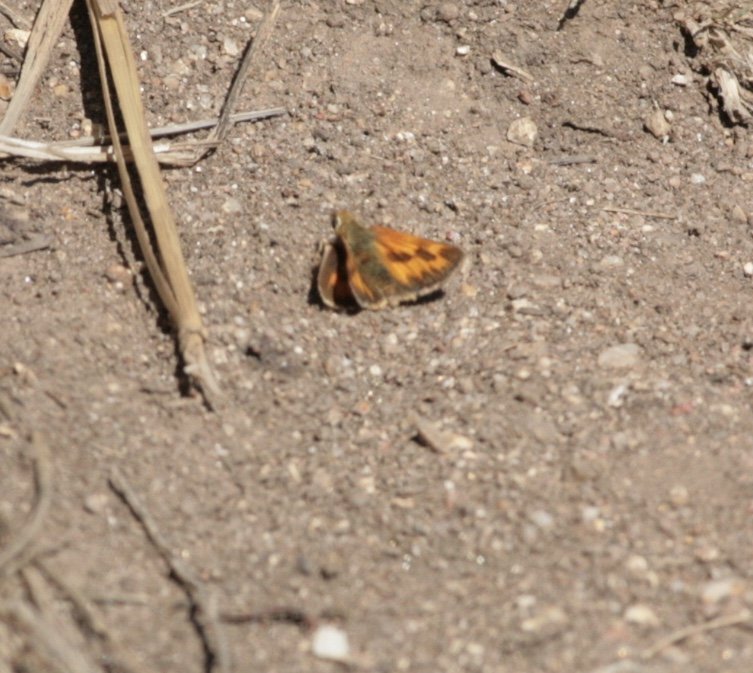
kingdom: Animalia
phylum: Arthropoda
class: Insecta
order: Lepidoptera
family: Hesperiidae
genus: Ochlodes
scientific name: Ochlodes sylvanoides
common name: Woodland Skipper
